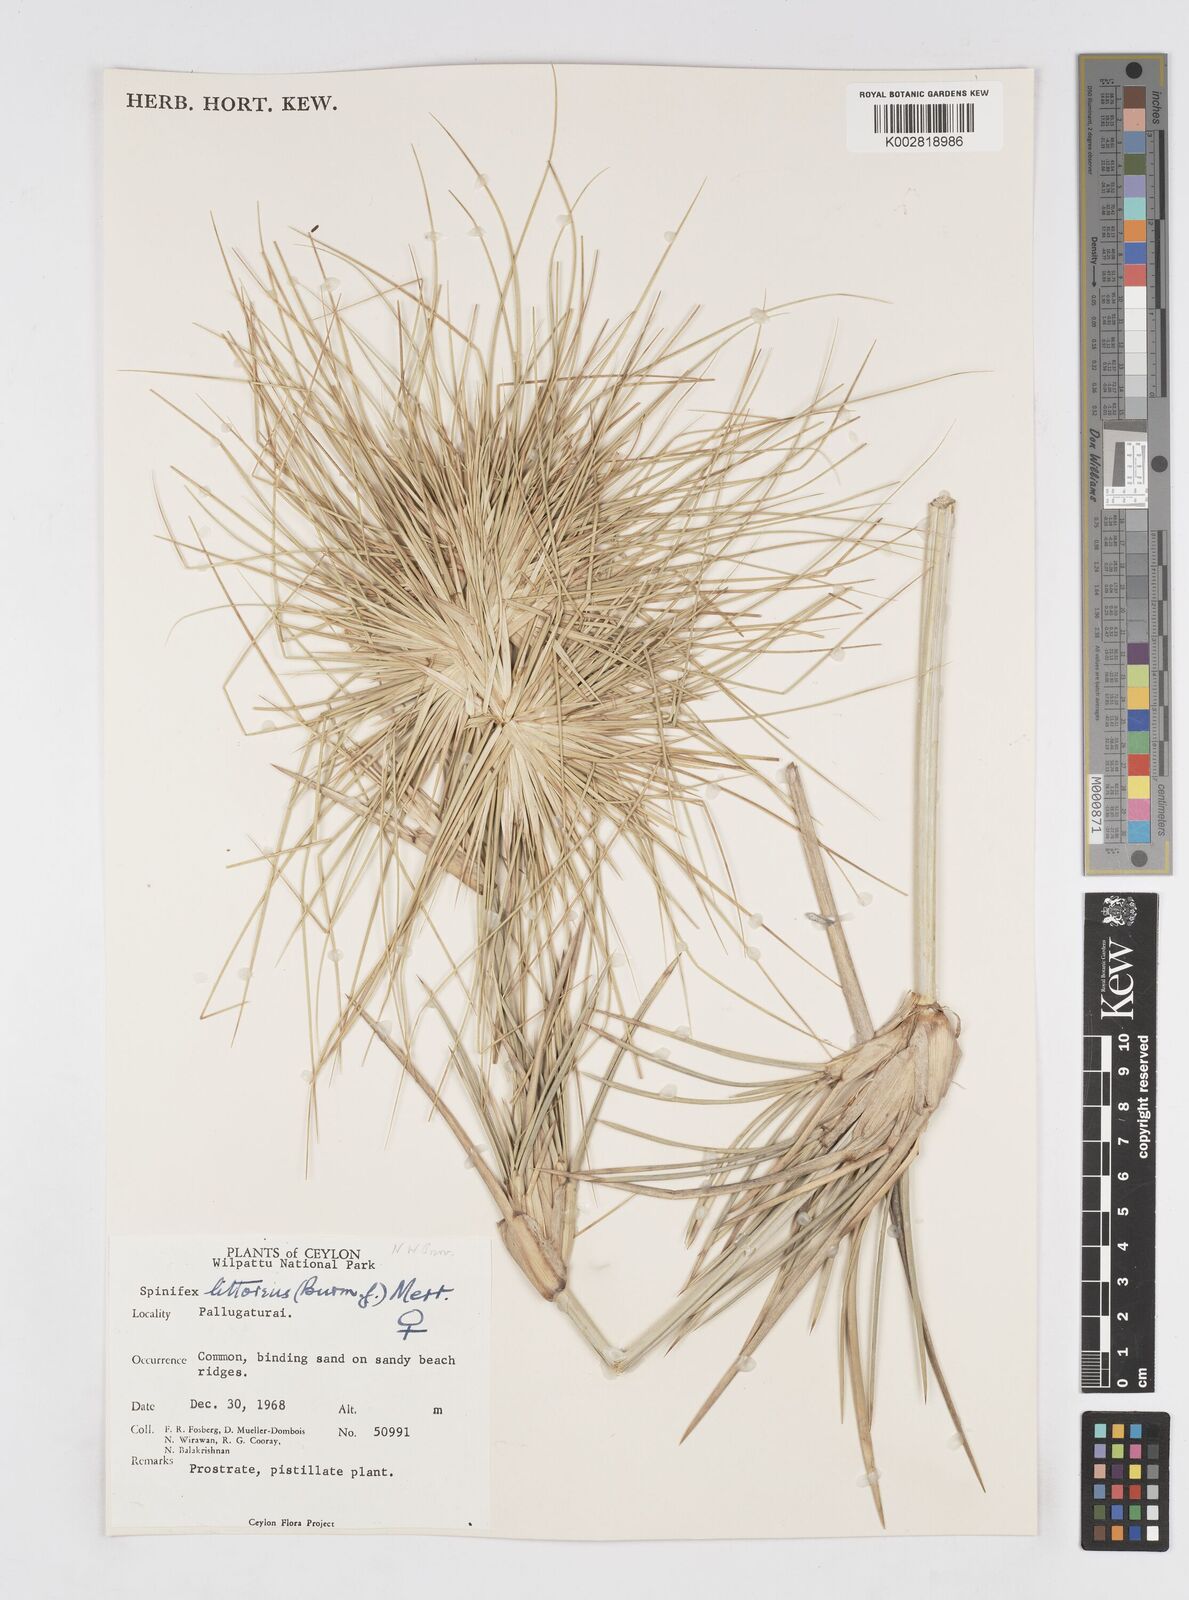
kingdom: Plantae
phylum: Tracheophyta
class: Liliopsida
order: Poales
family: Poaceae
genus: Spinifex
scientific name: Spinifex littoreus
